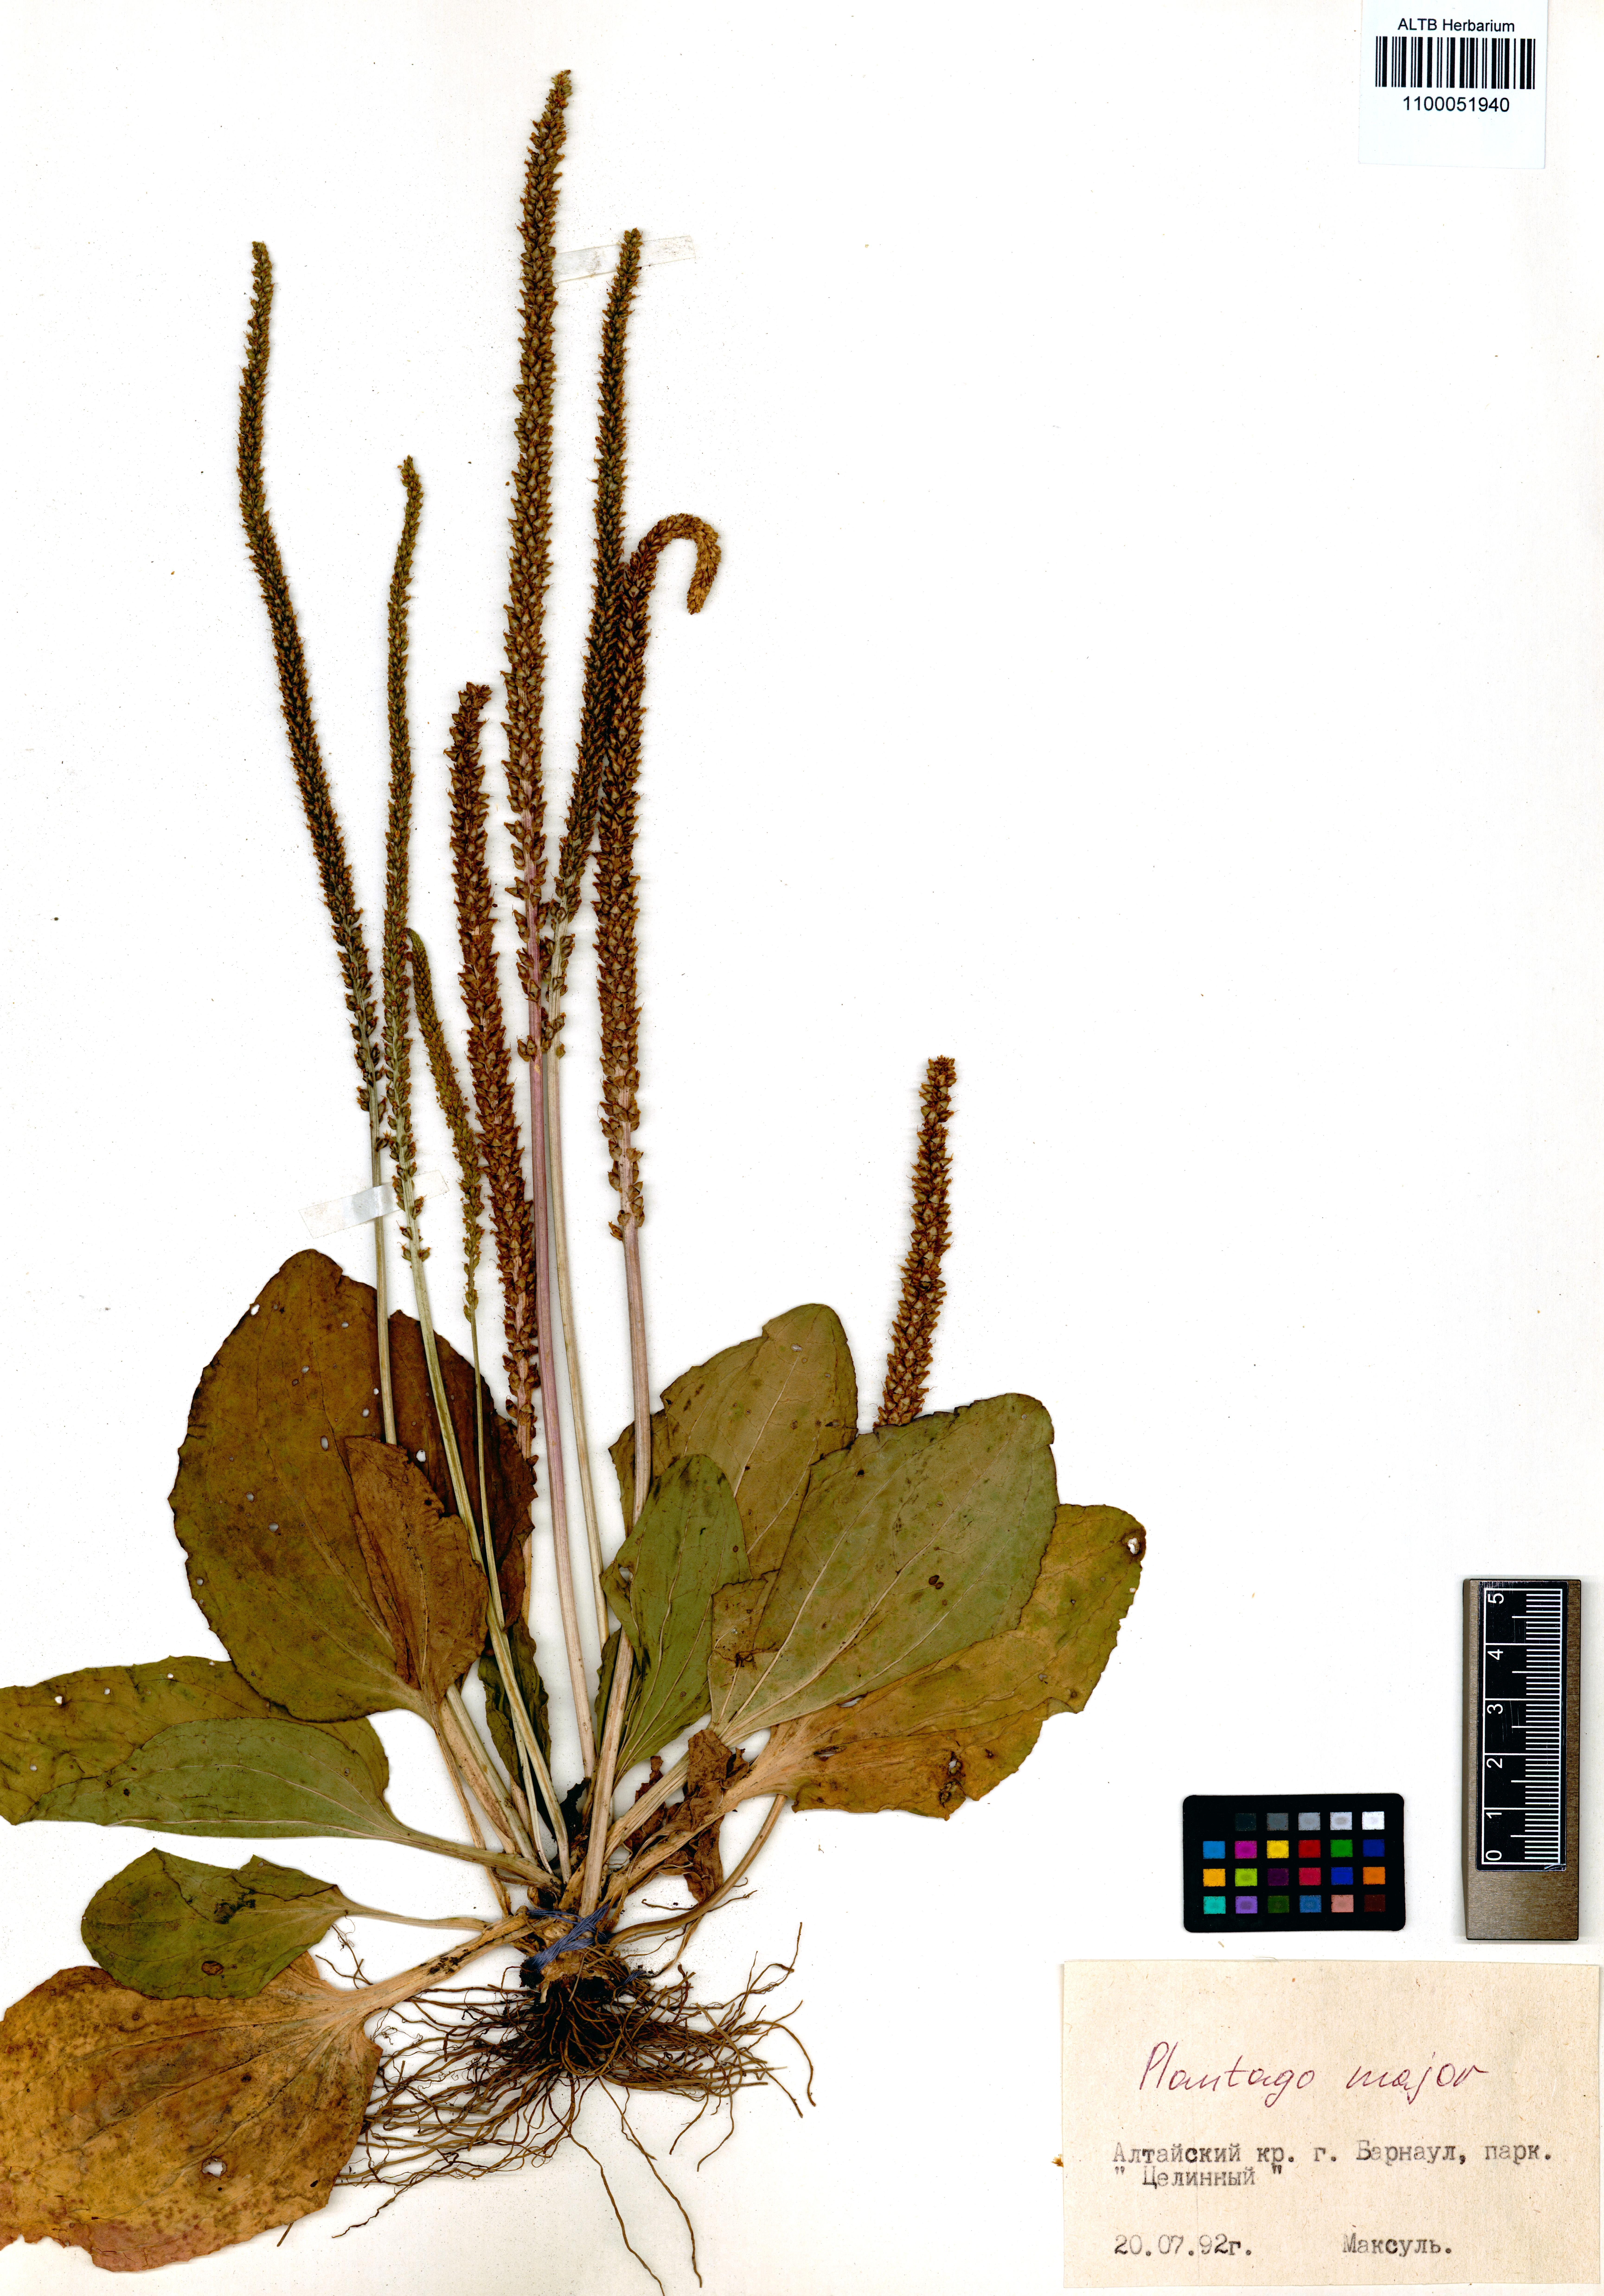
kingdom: Plantae
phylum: Tracheophyta
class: Magnoliopsida
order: Lamiales
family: Plantaginaceae
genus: Plantago
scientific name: Plantago major
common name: Common plantain
